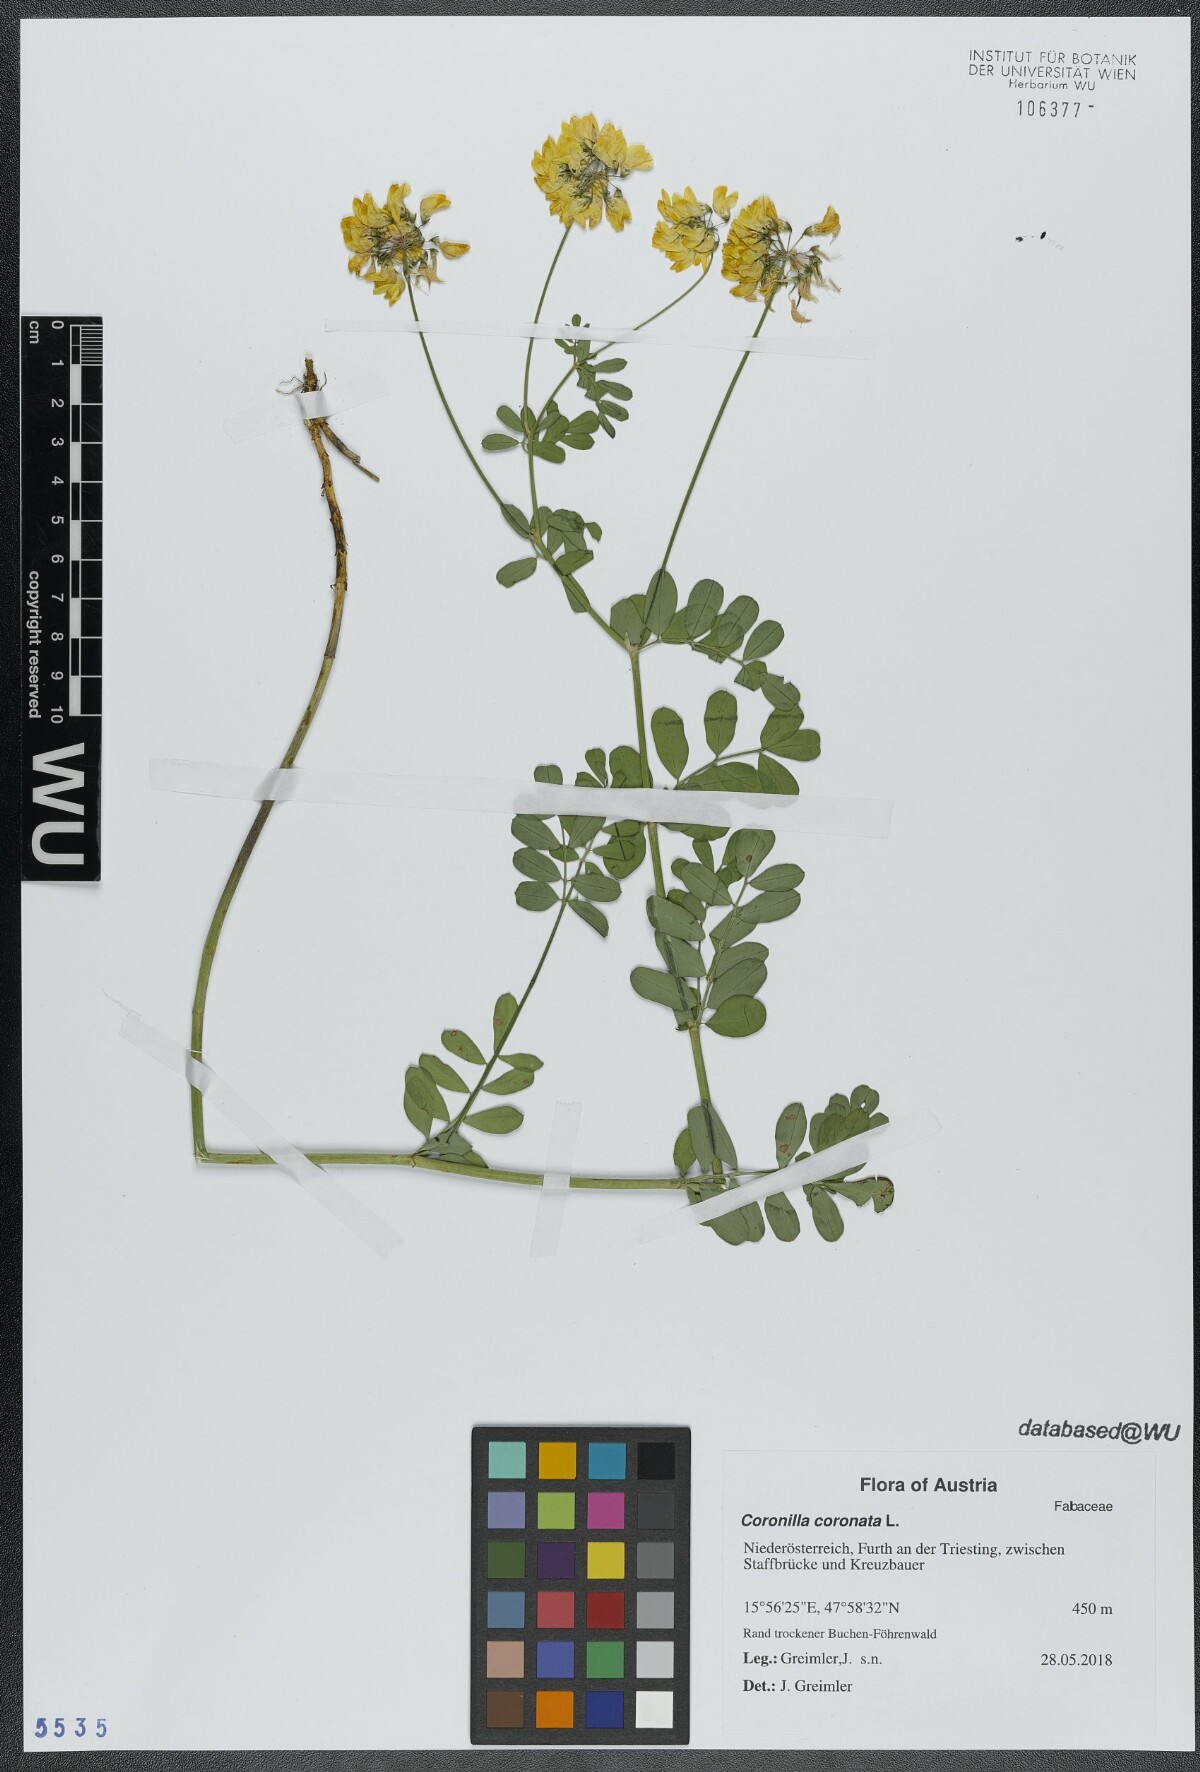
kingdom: Plantae
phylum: Tracheophyta
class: Magnoliopsida
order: Fabales
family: Fabaceae
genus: Coronilla
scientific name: Coronilla coronata
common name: Scorpion-vetch
